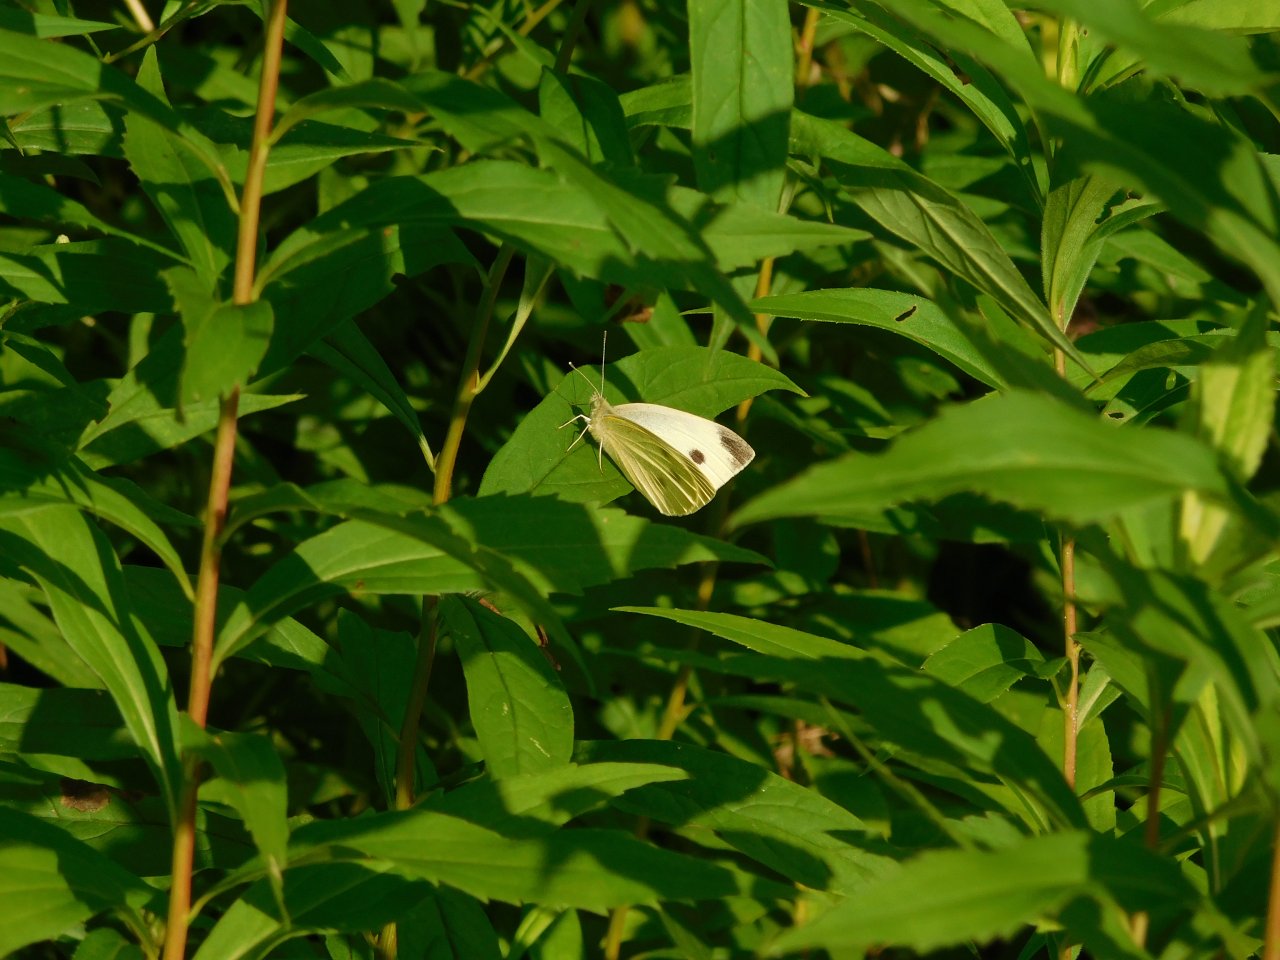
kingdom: Animalia
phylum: Arthropoda
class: Insecta
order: Lepidoptera
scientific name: Lepidoptera
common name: Butterflies
